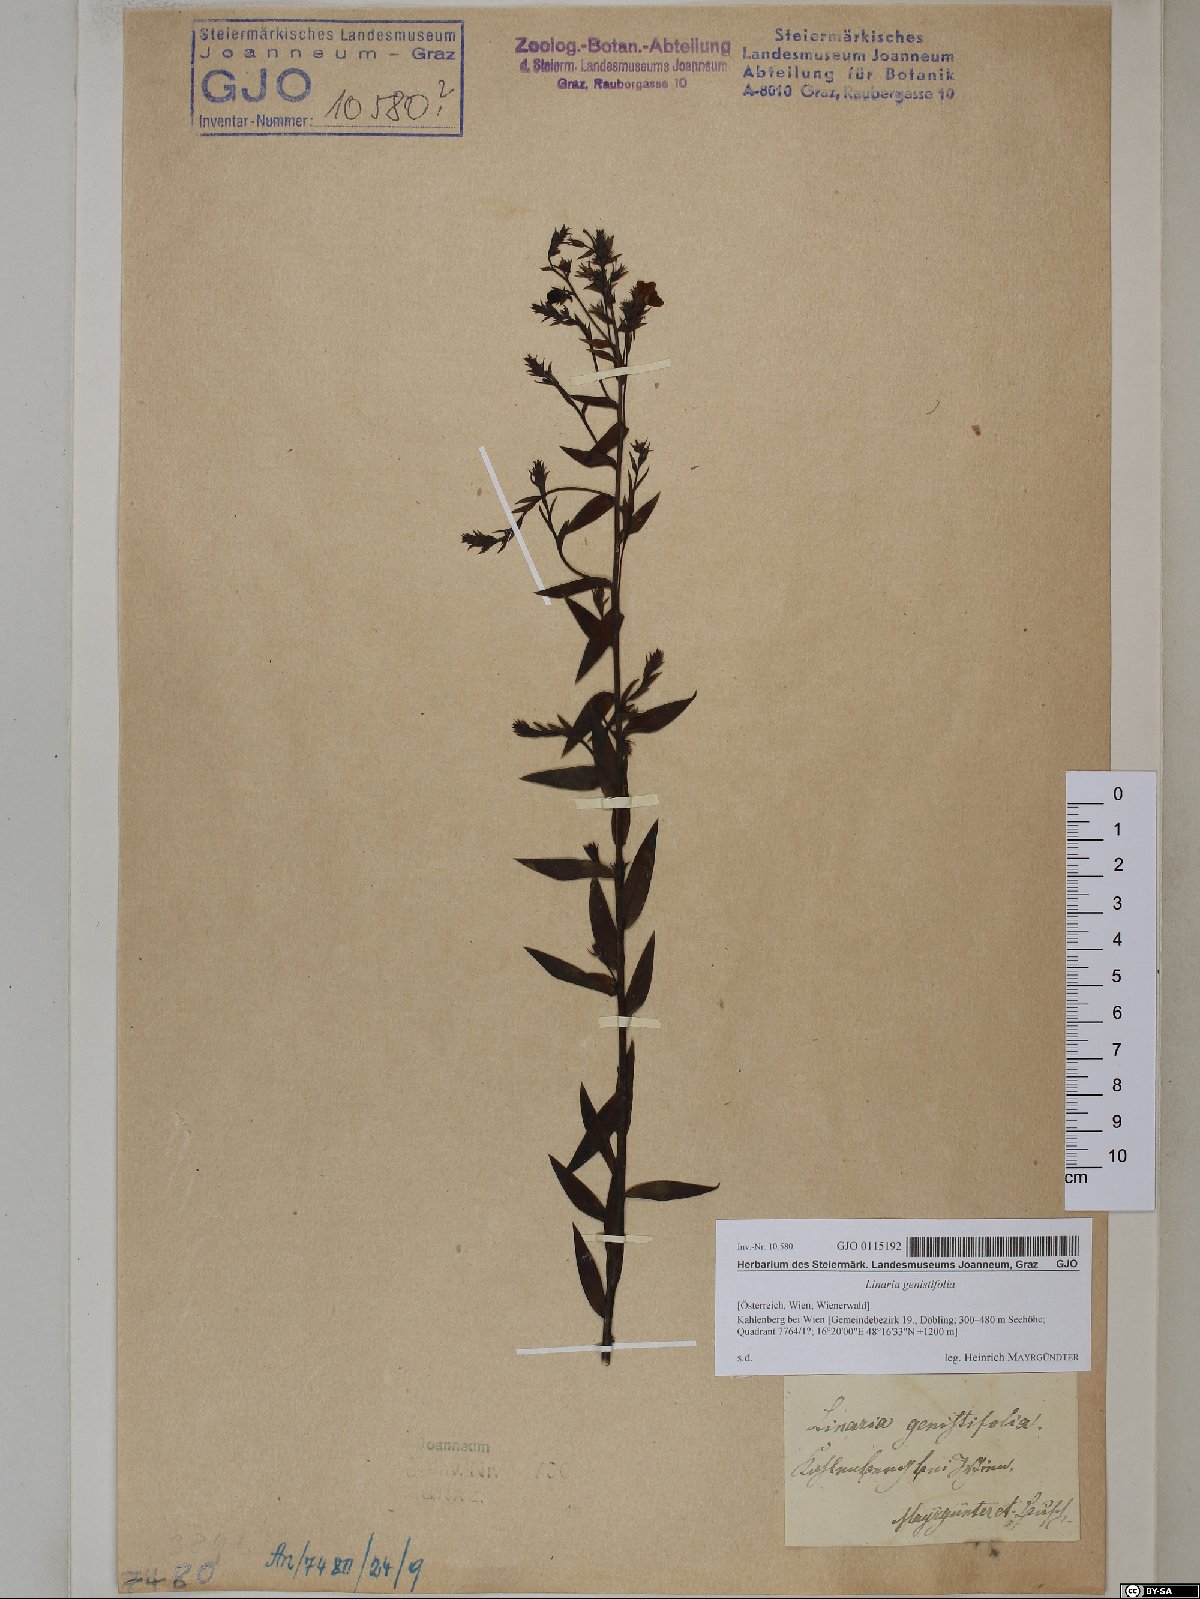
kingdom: Plantae
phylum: Tracheophyta
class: Magnoliopsida
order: Lamiales
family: Plantaginaceae
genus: Linaria
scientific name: Linaria genistifolia
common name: Broomleaf toadflax
